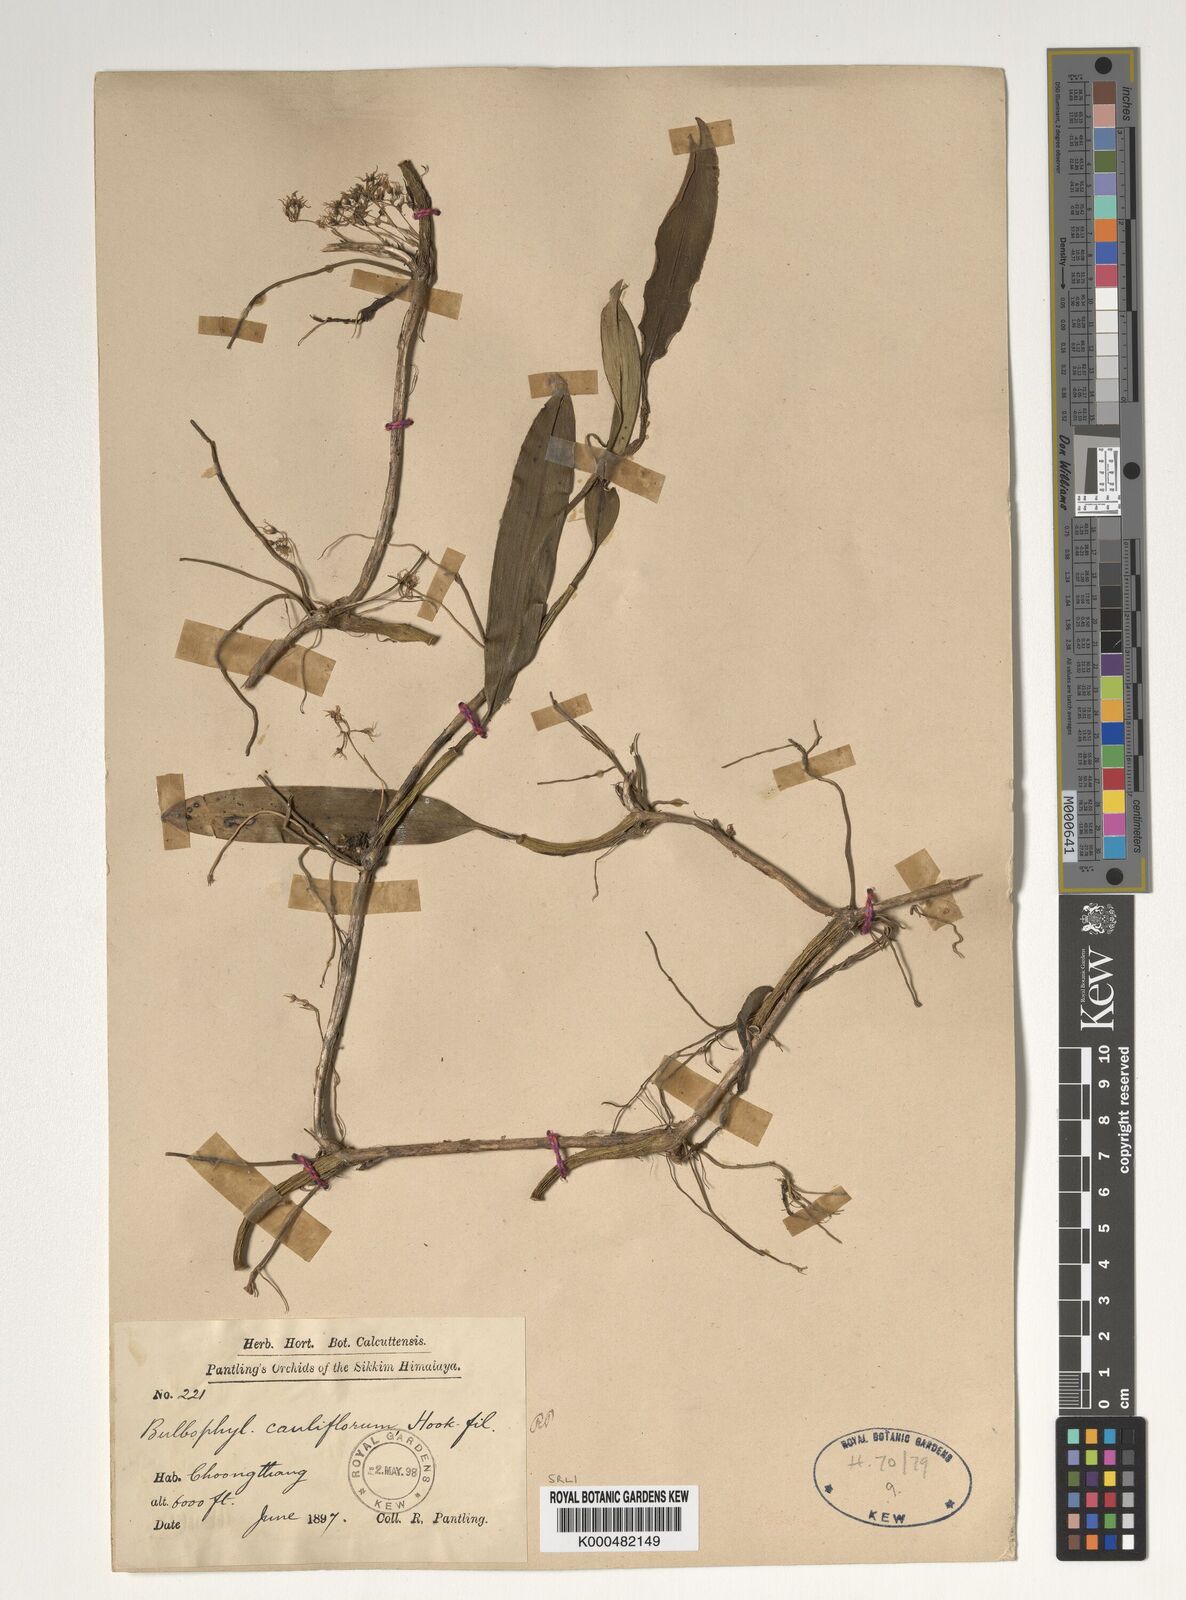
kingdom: Plantae
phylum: Tracheophyta
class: Liliopsida
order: Asparagales
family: Orchidaceae
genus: Bulbophyllum
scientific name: Bulbophyllum cauliflorum
